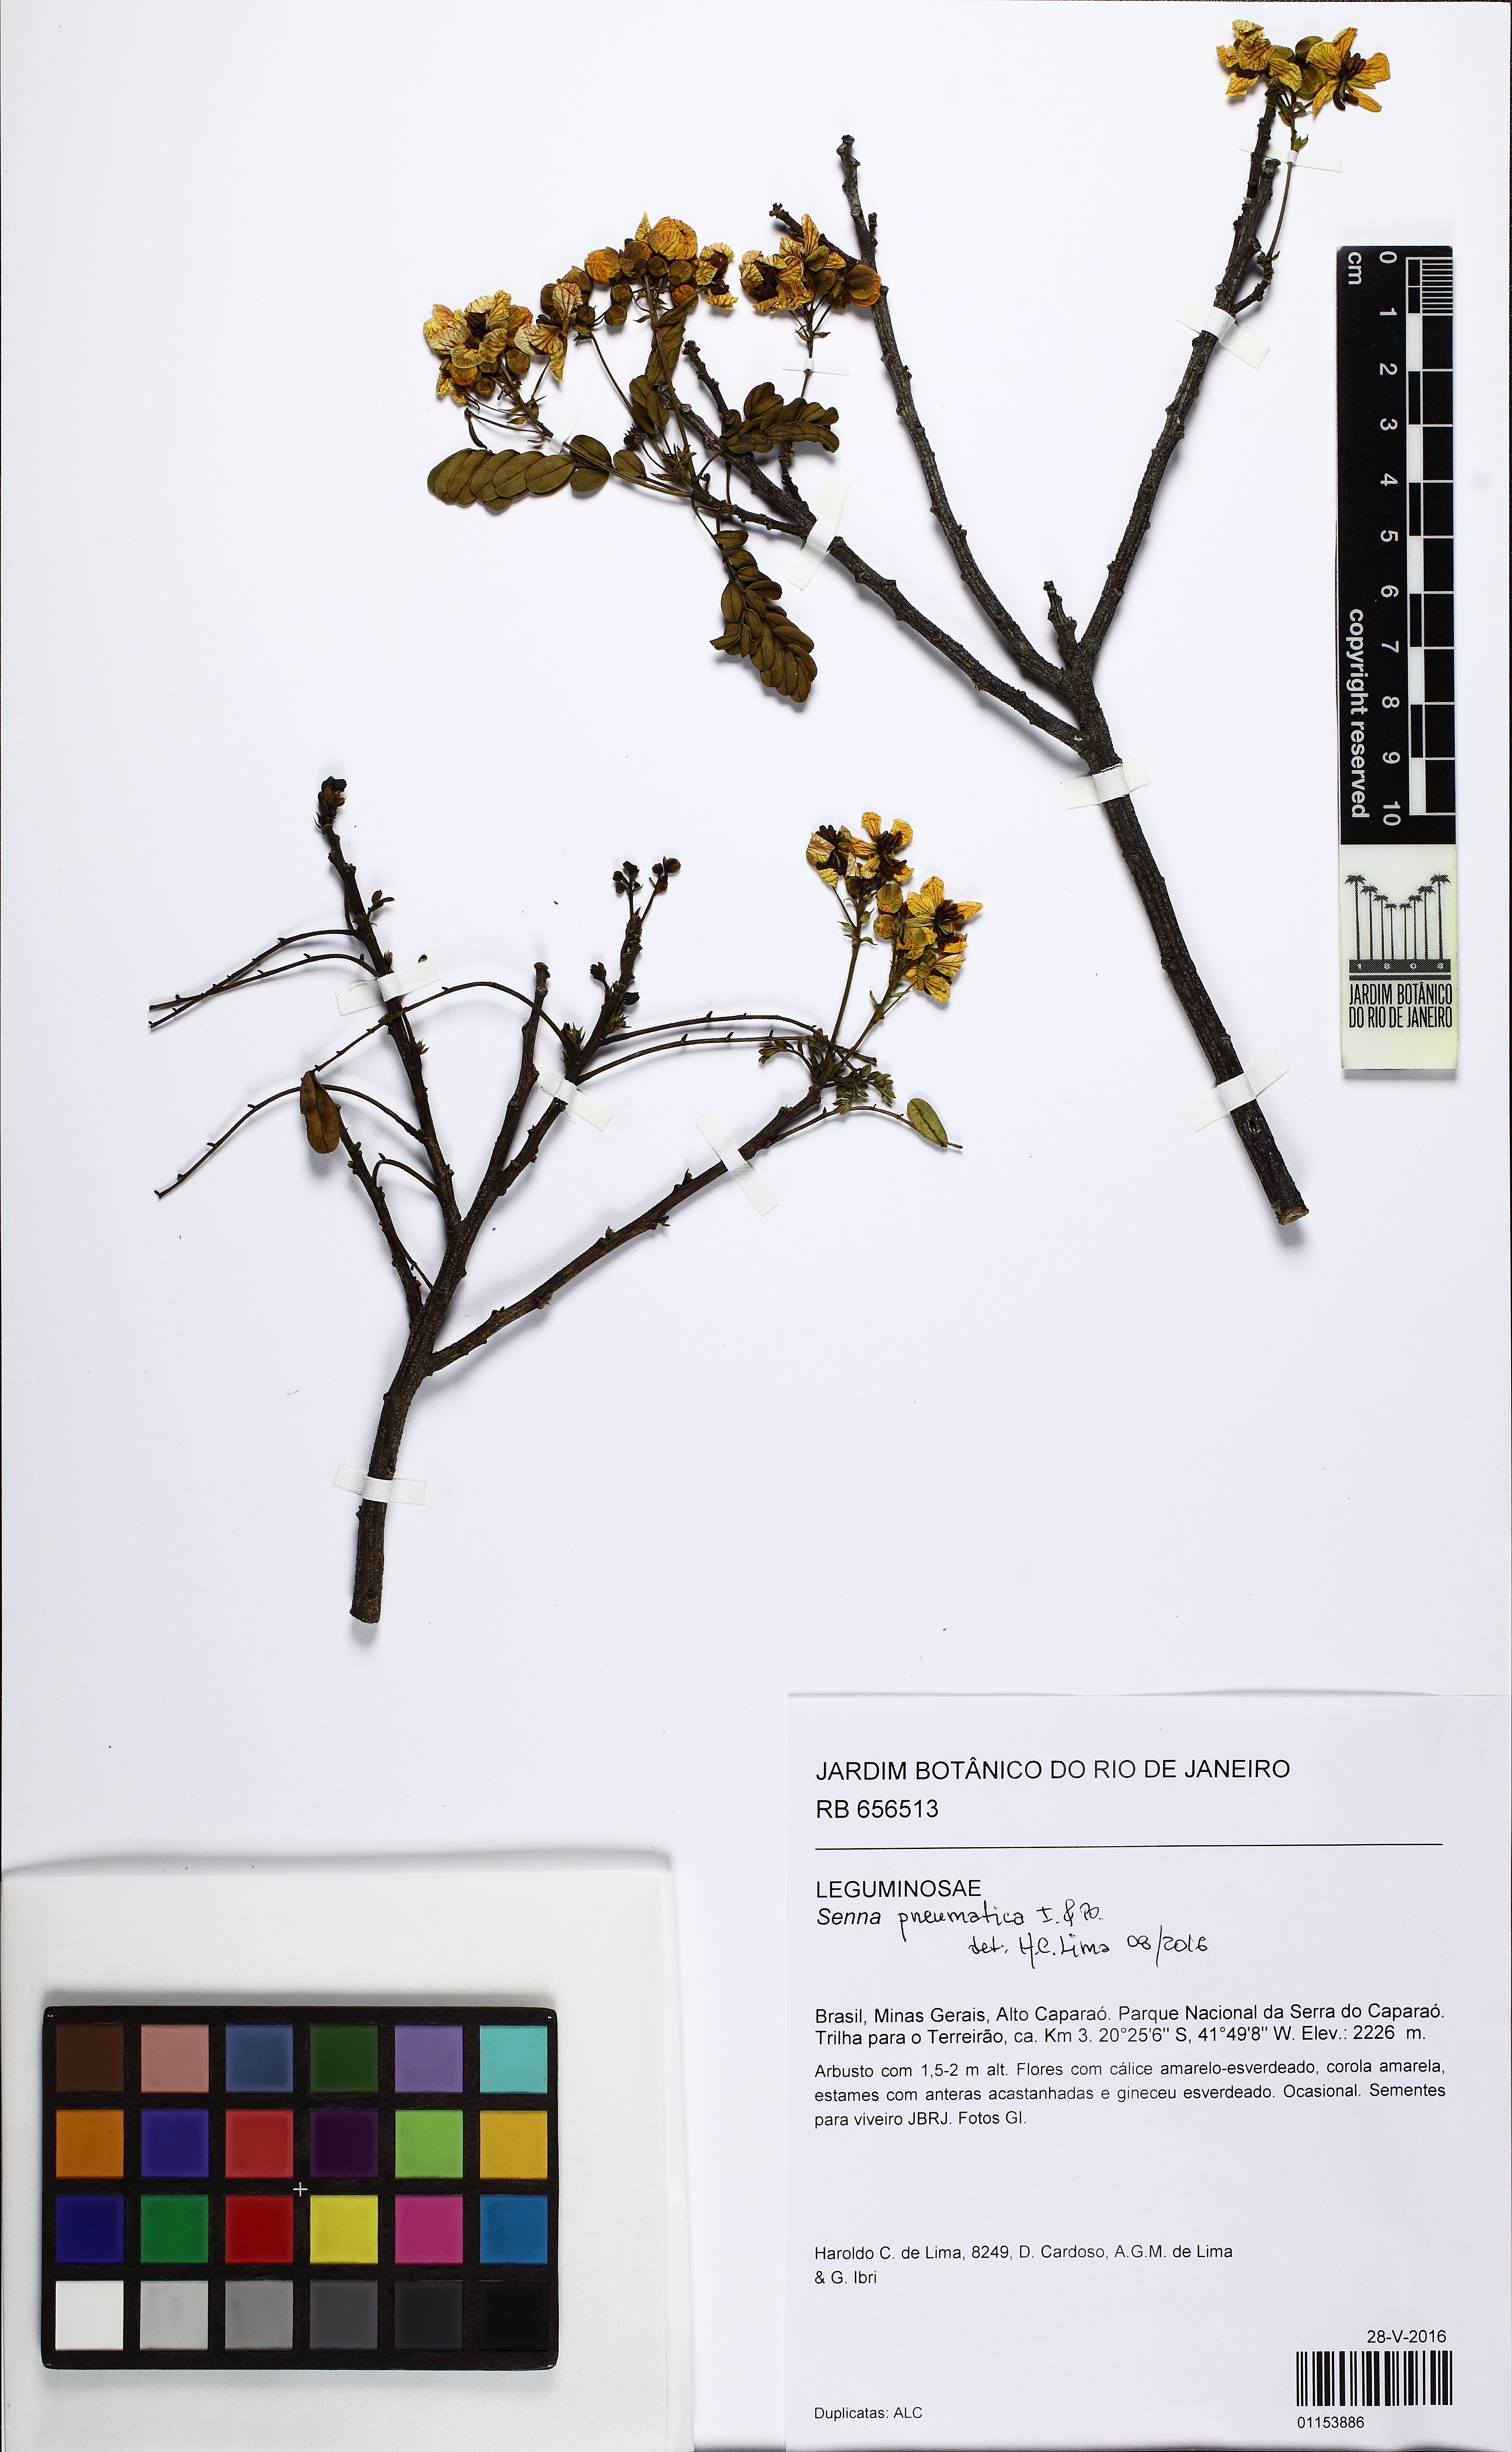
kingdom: Plantae
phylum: Tracheophyta
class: Magnoliopsida
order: Fabales
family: Fabaceae
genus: Senna
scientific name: Senna pneumatica
